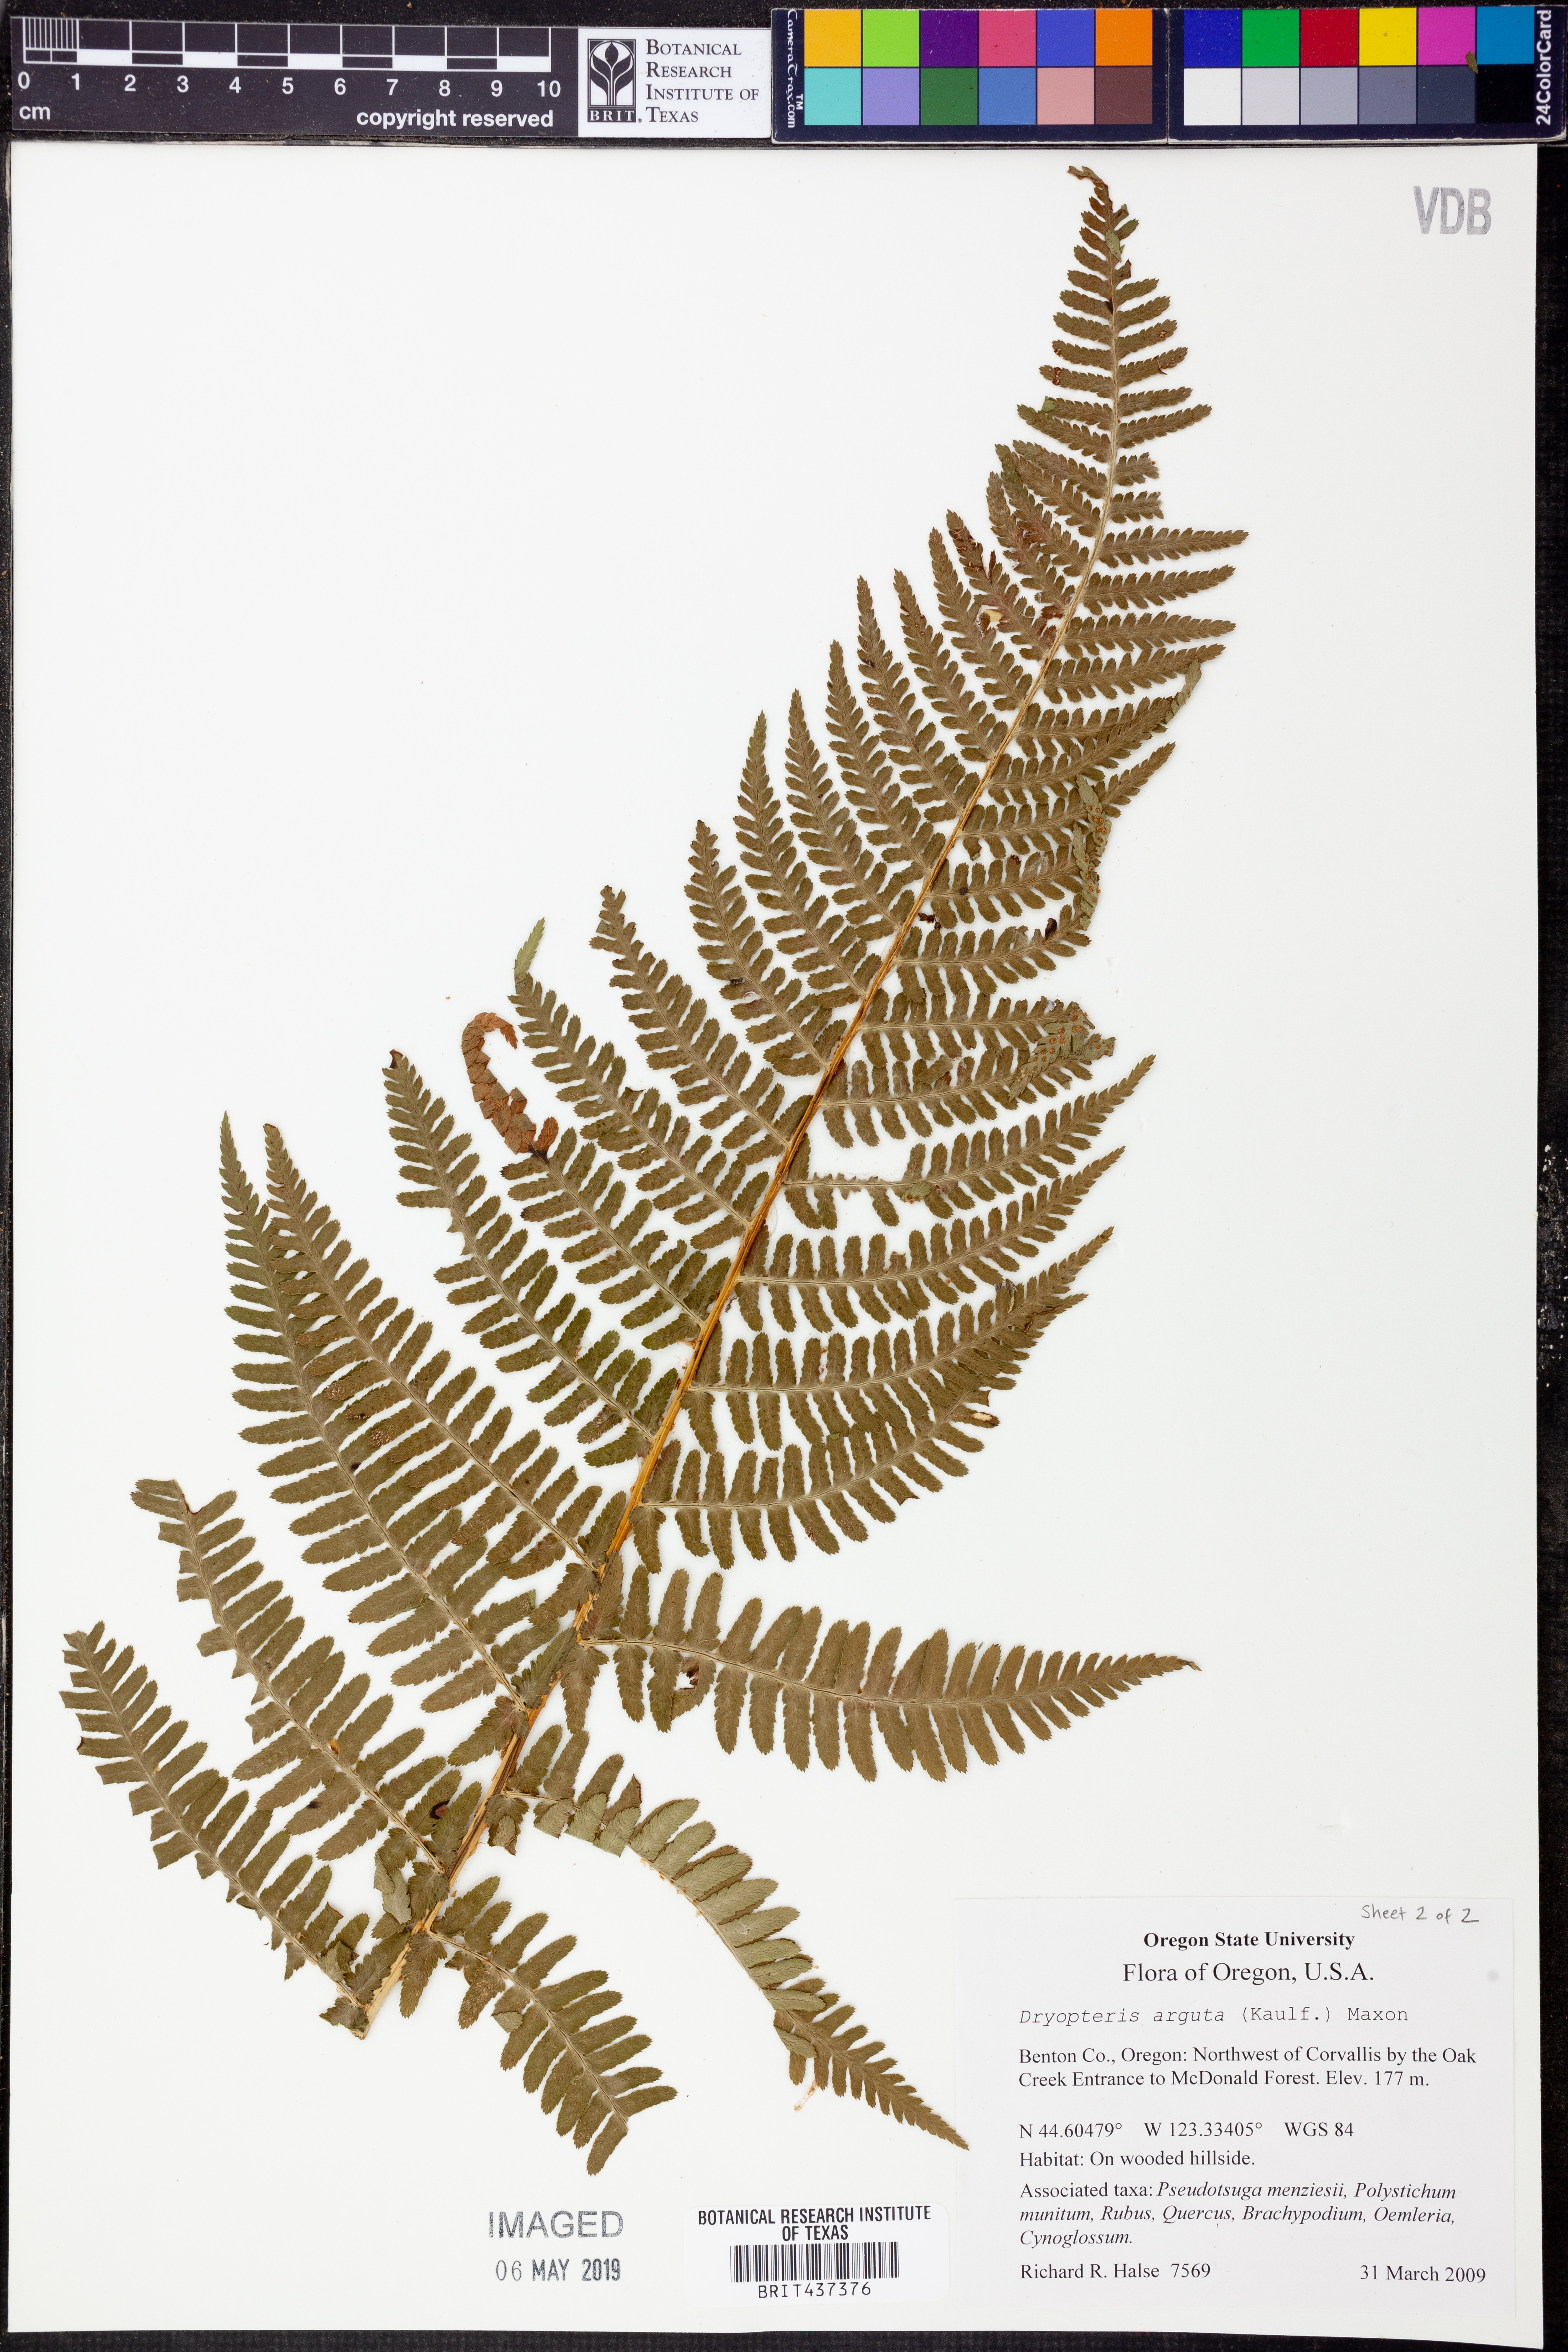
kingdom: Plantae
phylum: Tracheophyta
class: Polypodiopsida
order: Polypodiales
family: Dryopteridaceae
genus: Dryopteris
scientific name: Dryopteris arguta
